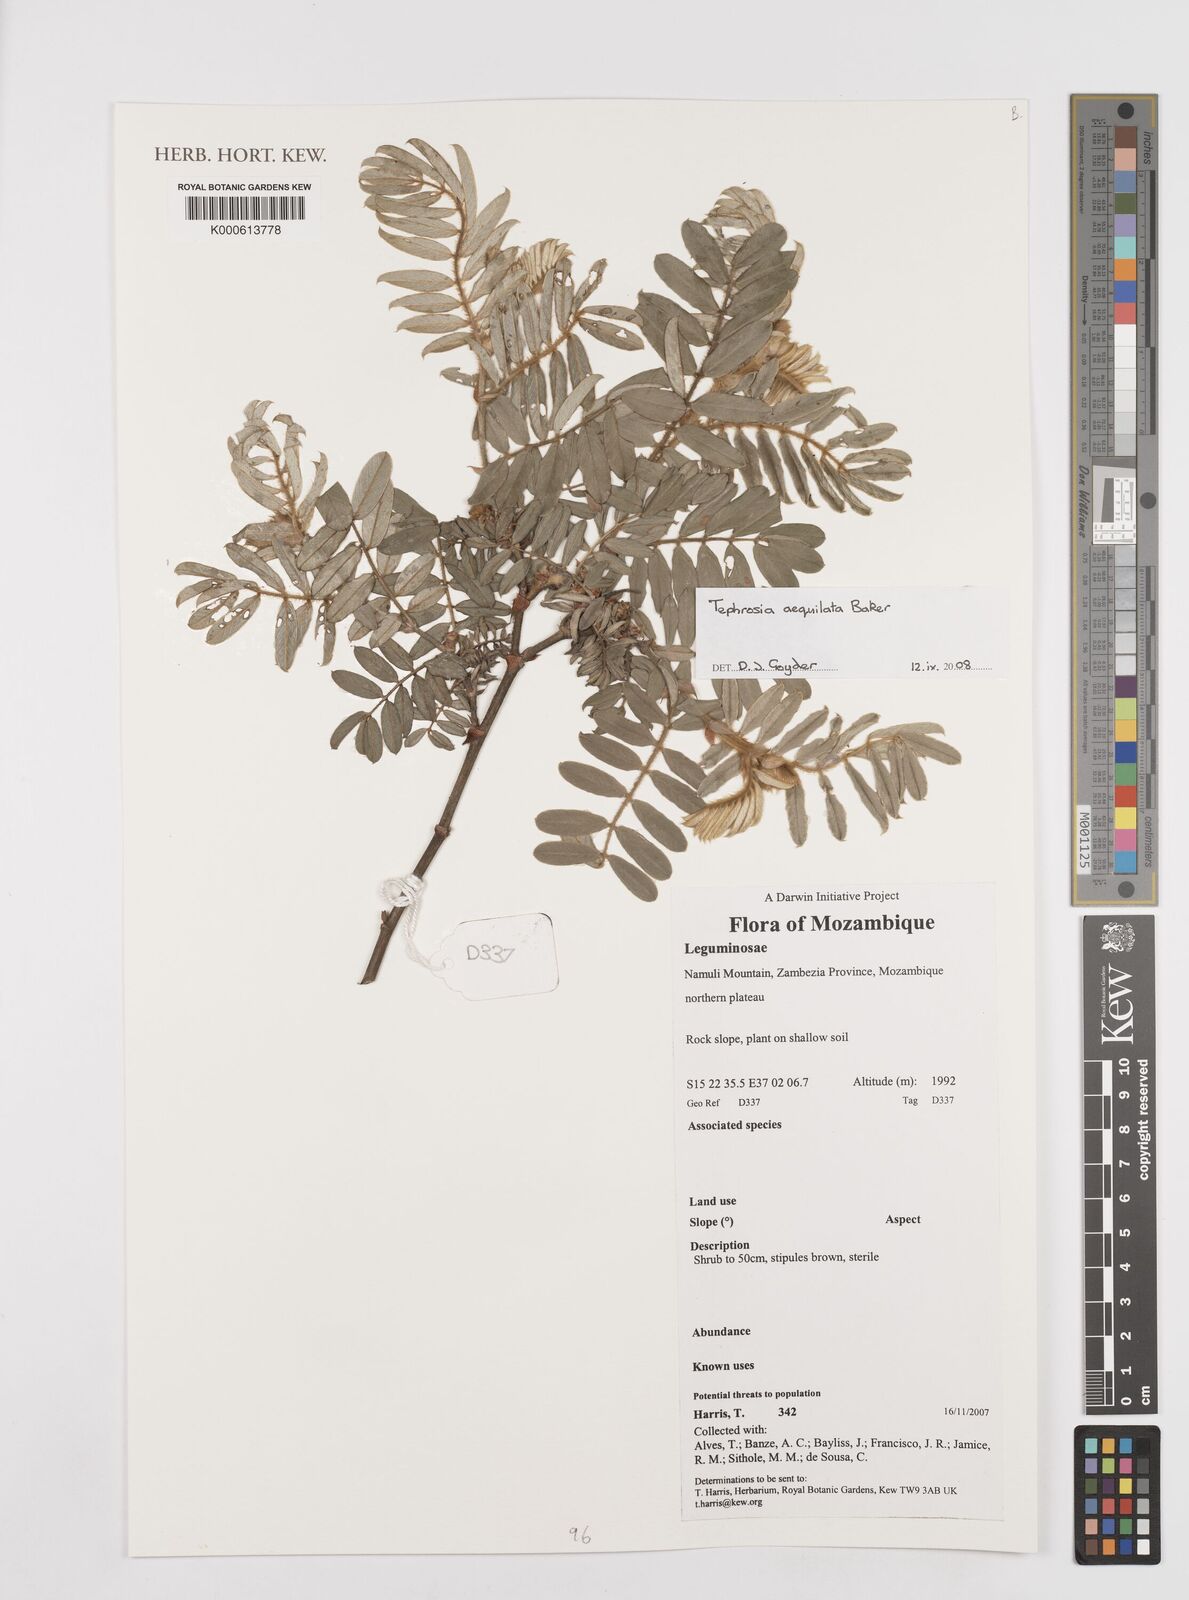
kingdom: Plantae
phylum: Tracheophyta
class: Magnoliopsida
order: Fabales
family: Fabaceae
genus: Tephrosia
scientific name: Tephrosia aequilata
